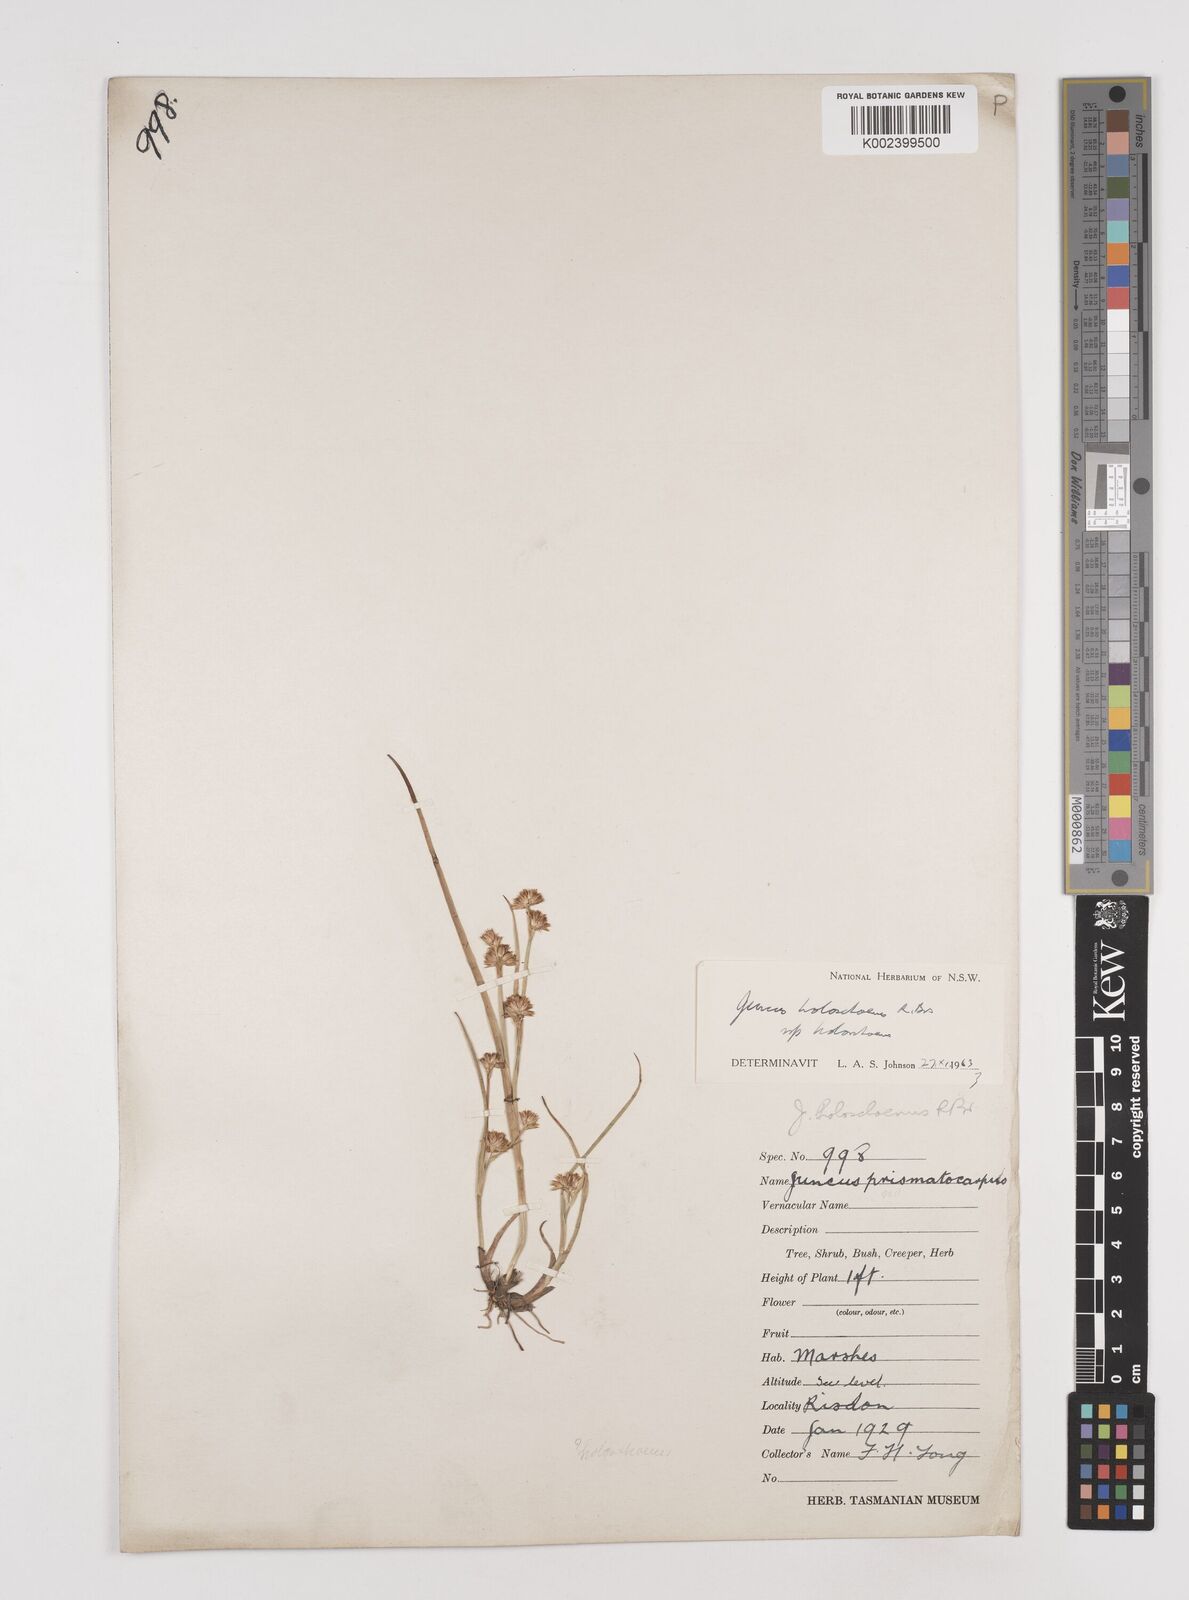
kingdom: Plantae
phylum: Tracheophyta
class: Liliopsida
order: Poales
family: Juncaceae
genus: Juncus
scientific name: Juncus holoschoenus
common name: Joint-leaf rush
